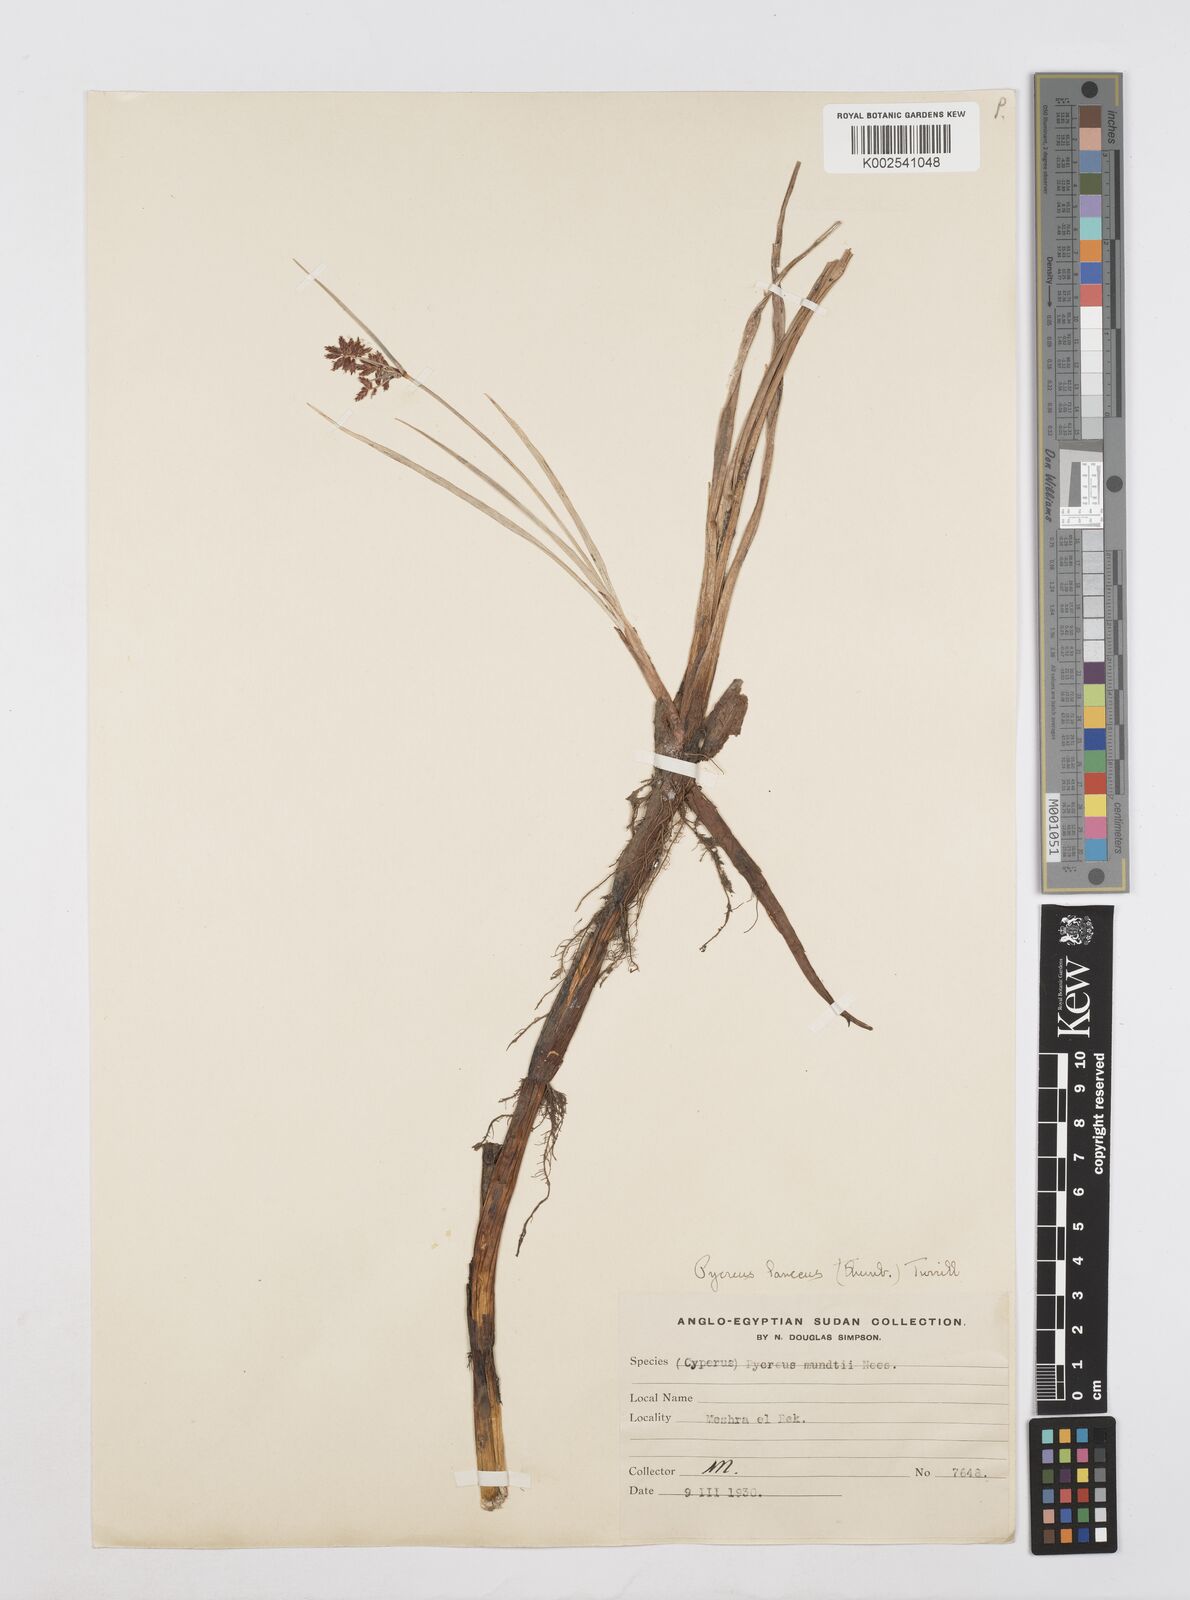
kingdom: Plantae
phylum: Tracheophyta
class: Liliopsida
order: Poales
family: Cyperaceae
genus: Cyperus
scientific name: Cyperus nitidus
